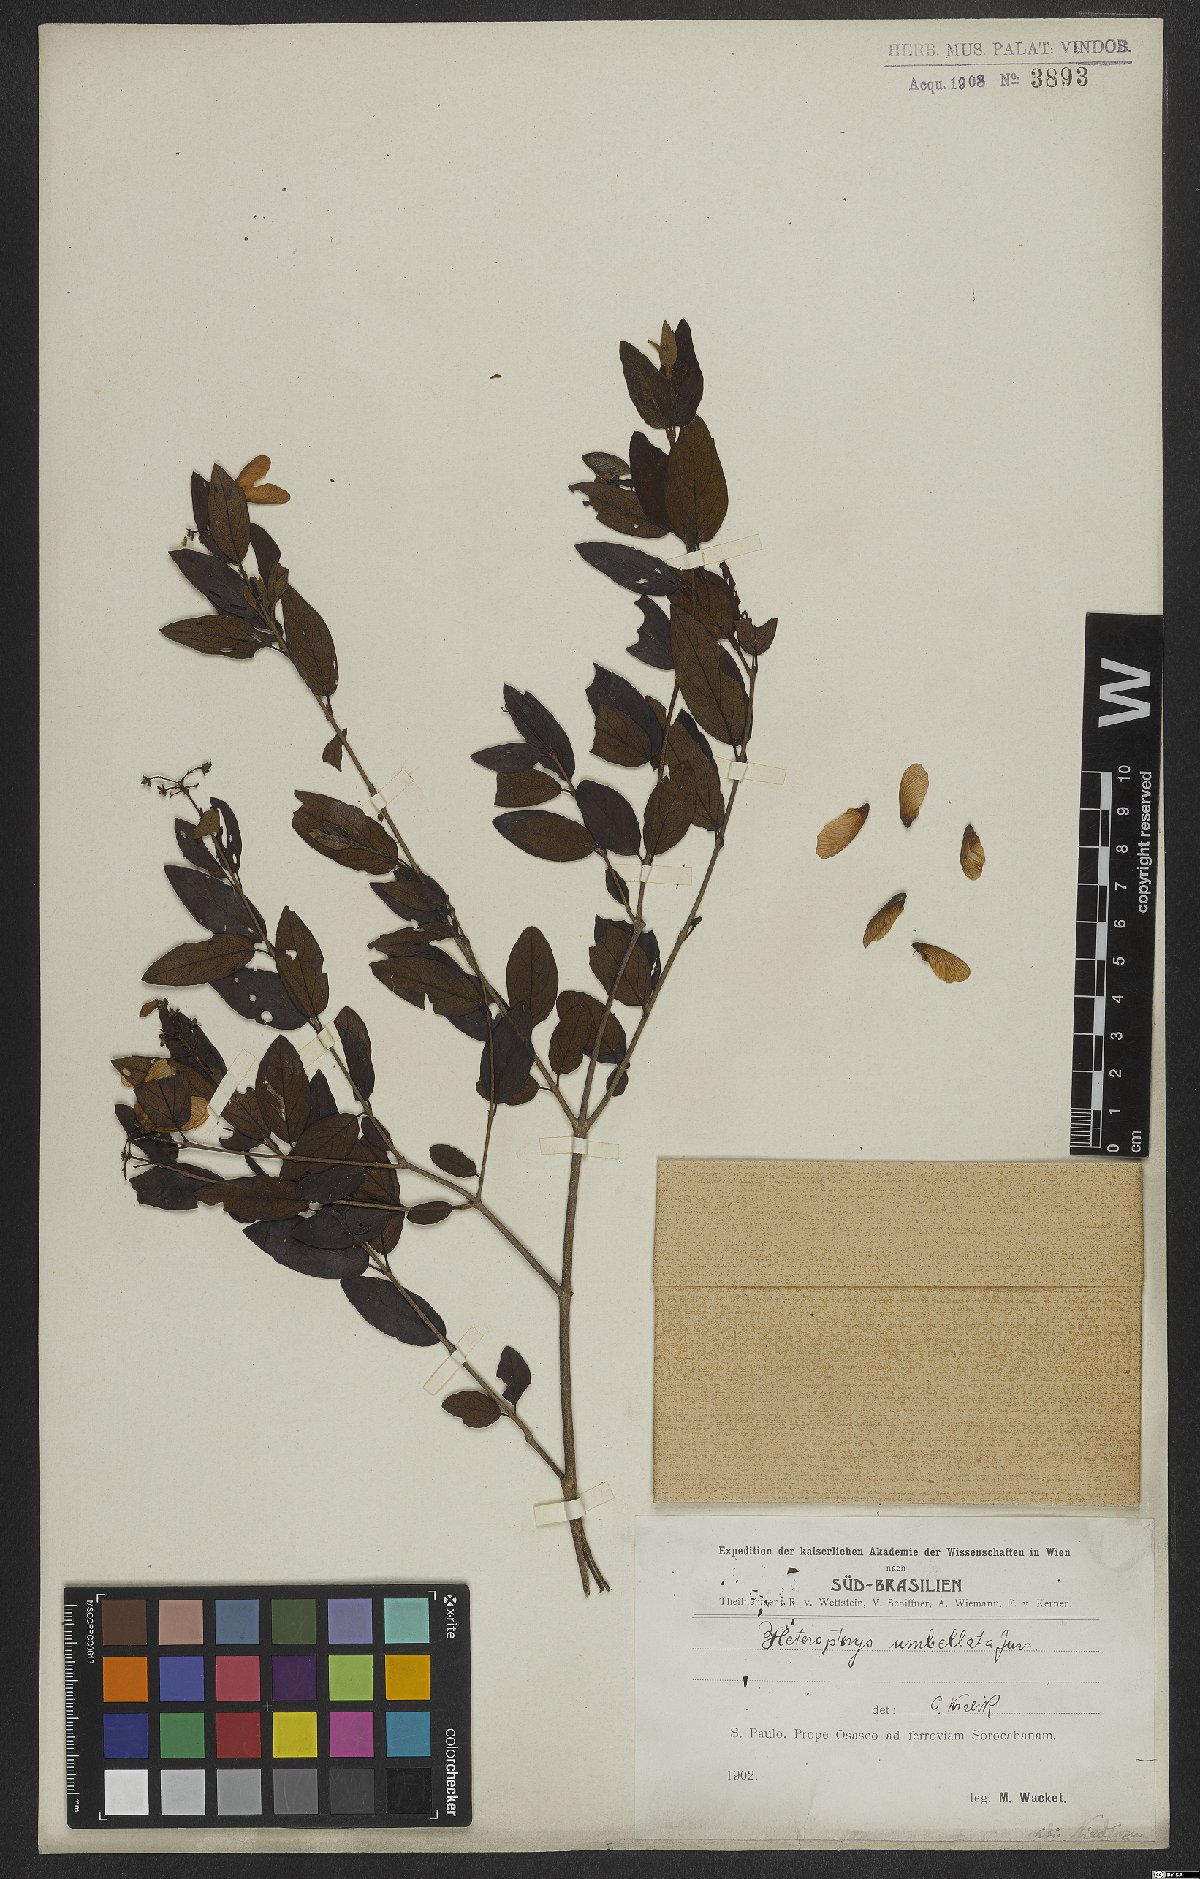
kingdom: Plantae
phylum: Tracheophyta
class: Magnoliopsida
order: Malpighiales
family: Malpighiaceae
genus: Heteropterys
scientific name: Heteropterys umbellata
